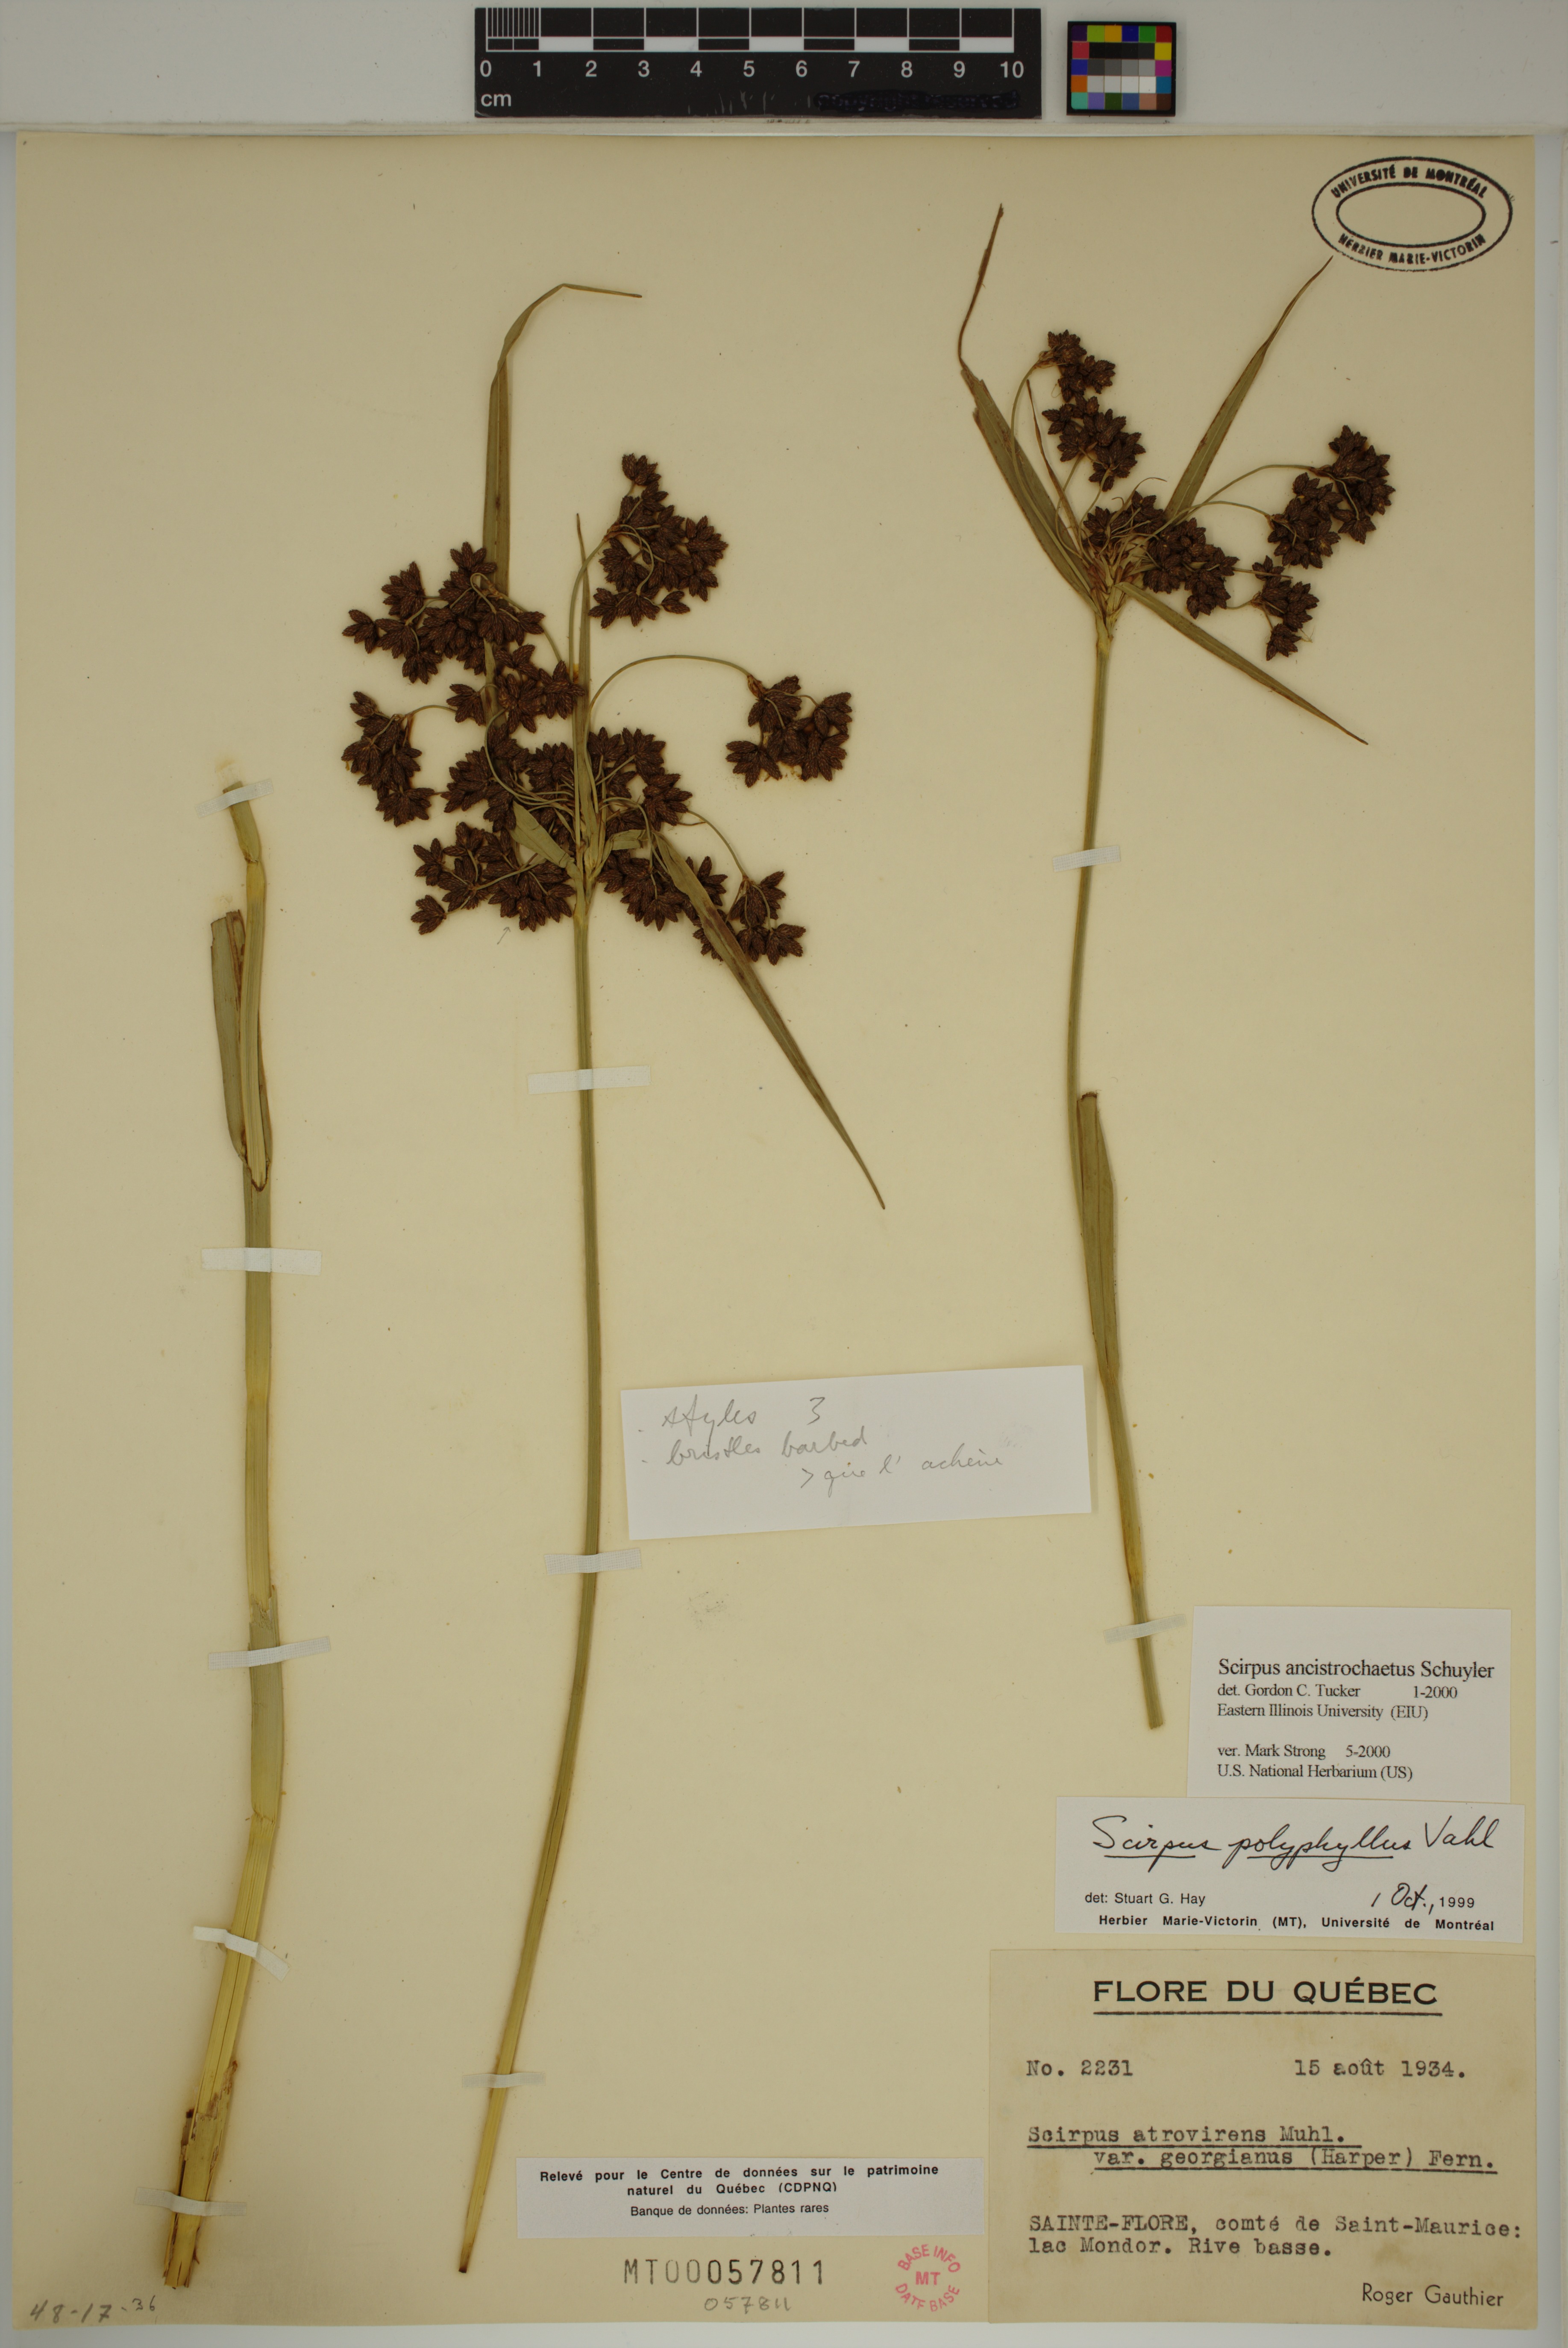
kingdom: Plantae
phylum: Tracheophyta
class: Liliopsida
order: Poales
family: Cyperaceae
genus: Scirpus
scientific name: Scirpus ancistrochaetus
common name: Northeastern bulrush
